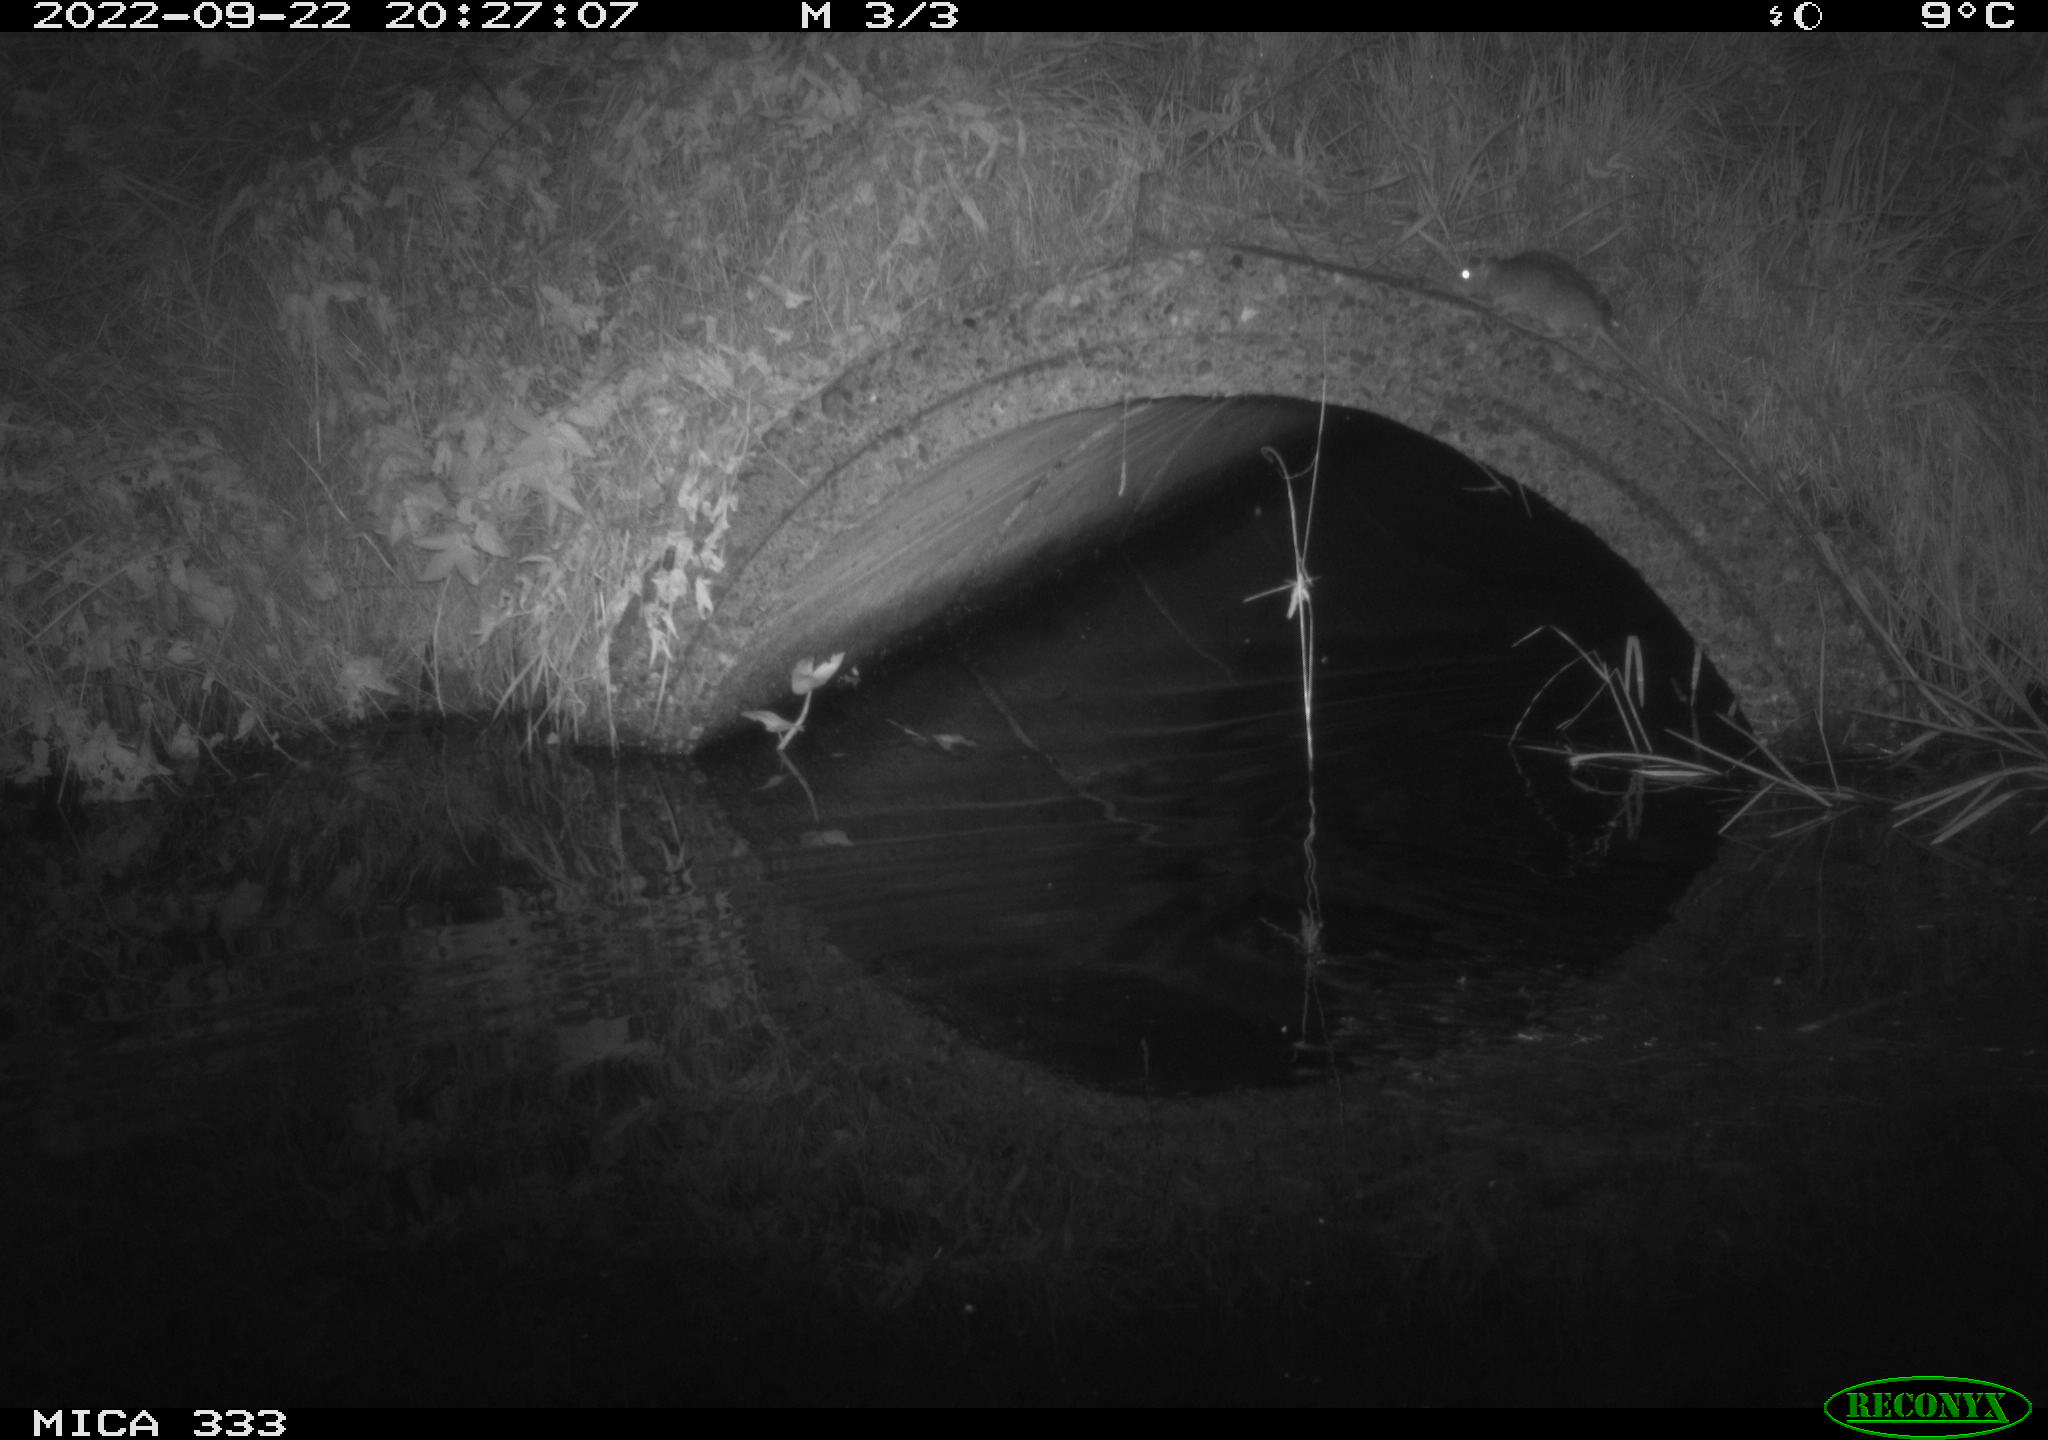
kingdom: Animalia
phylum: Chordata
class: Mammalia
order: Rodentia
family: Muridae
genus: Rattus
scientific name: Rattus norvegicus
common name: Brown rat
